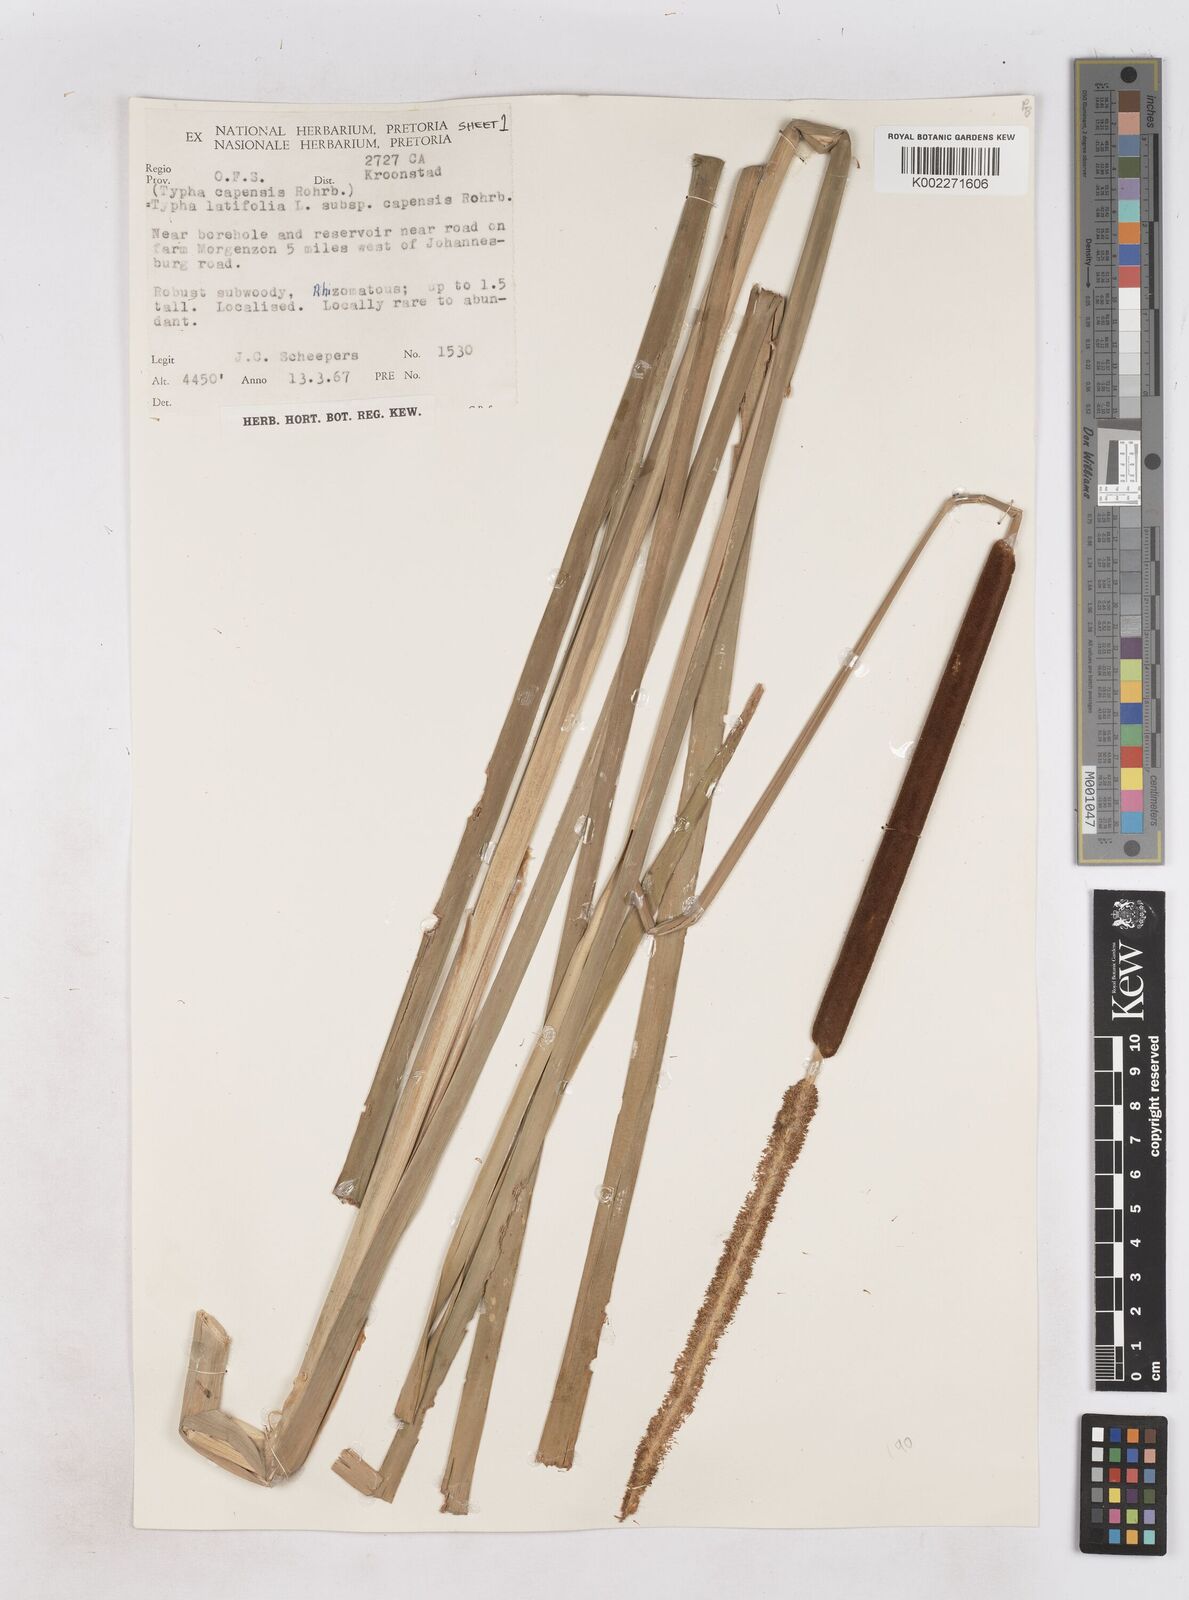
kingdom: Plantae
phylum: Tracheophyta
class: Liliopsida
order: Poales
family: Typhaceae
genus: Typha
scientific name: Typha capensis
